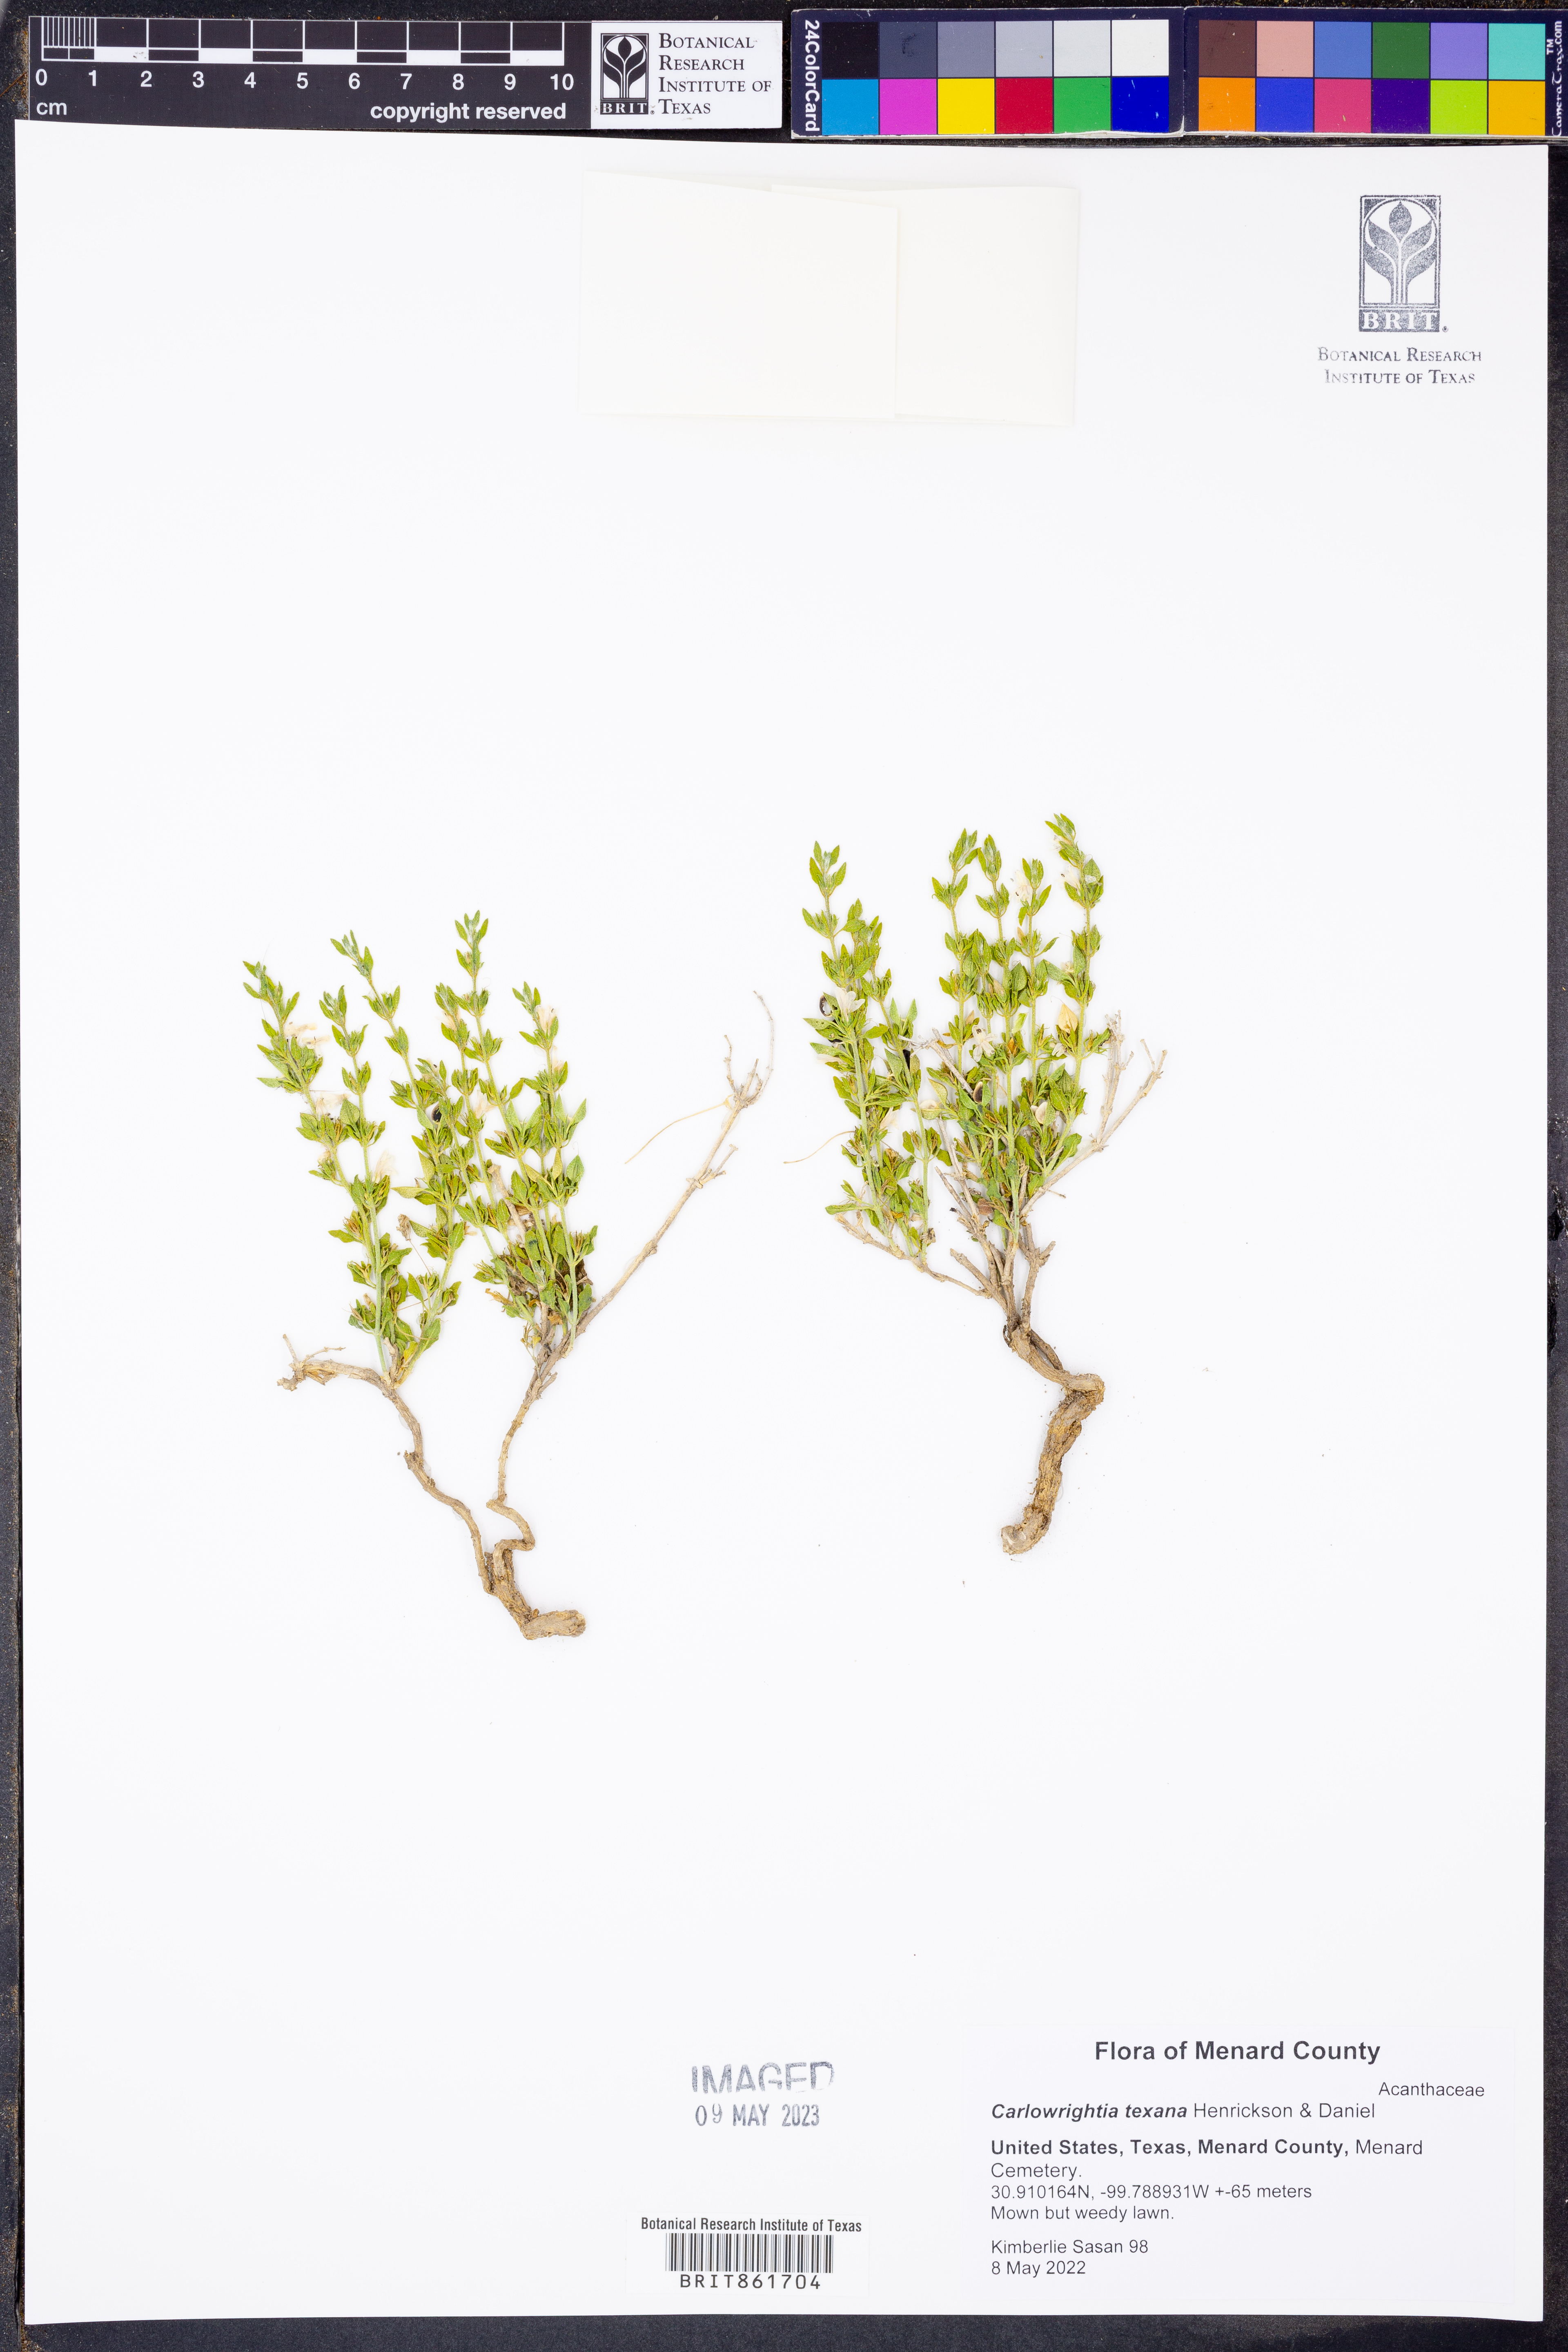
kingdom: Plantae
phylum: Tracheophyta
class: Magnoliopsida
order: Lamiales
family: Acanthaceae
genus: Carlowrightia
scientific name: Carlowrightia texana
